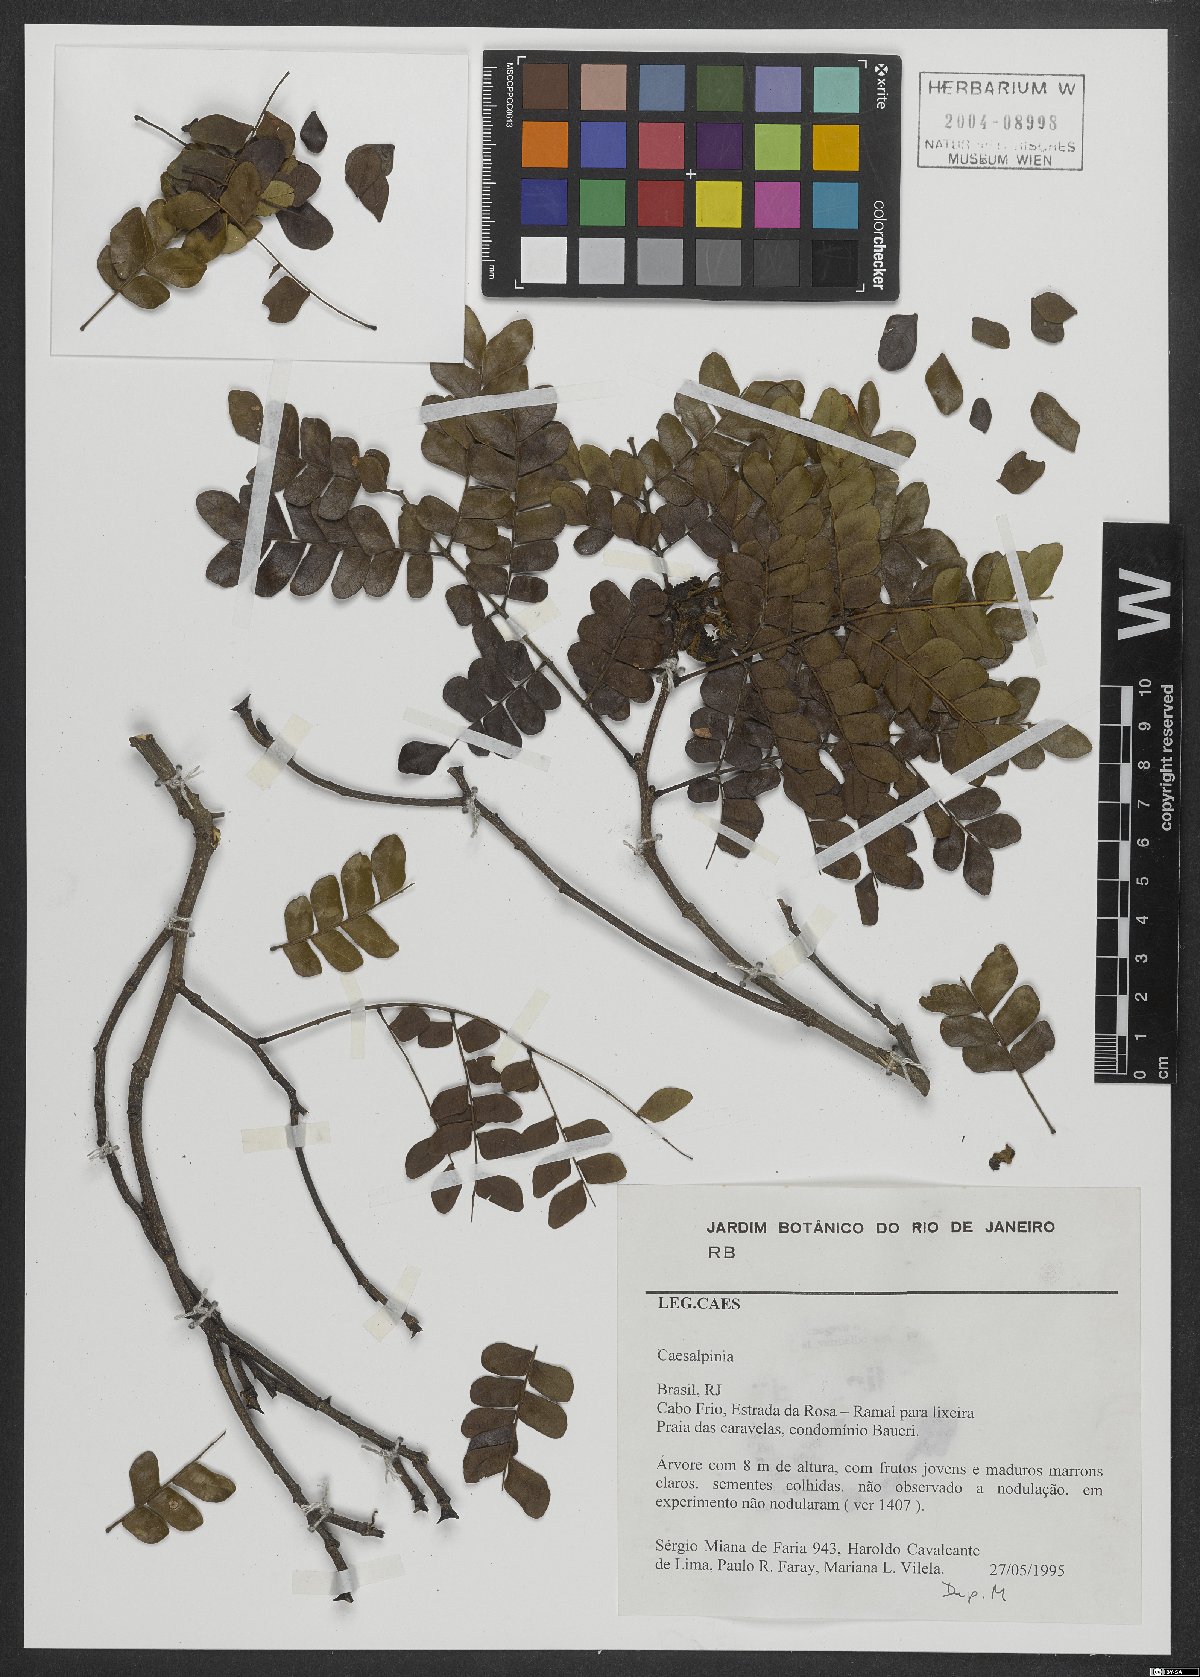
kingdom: Plantae
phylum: Tracheophyta
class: Magnoliopsida
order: Fabales
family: Fabaceae
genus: Caesalpinia
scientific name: Caesalpinia
